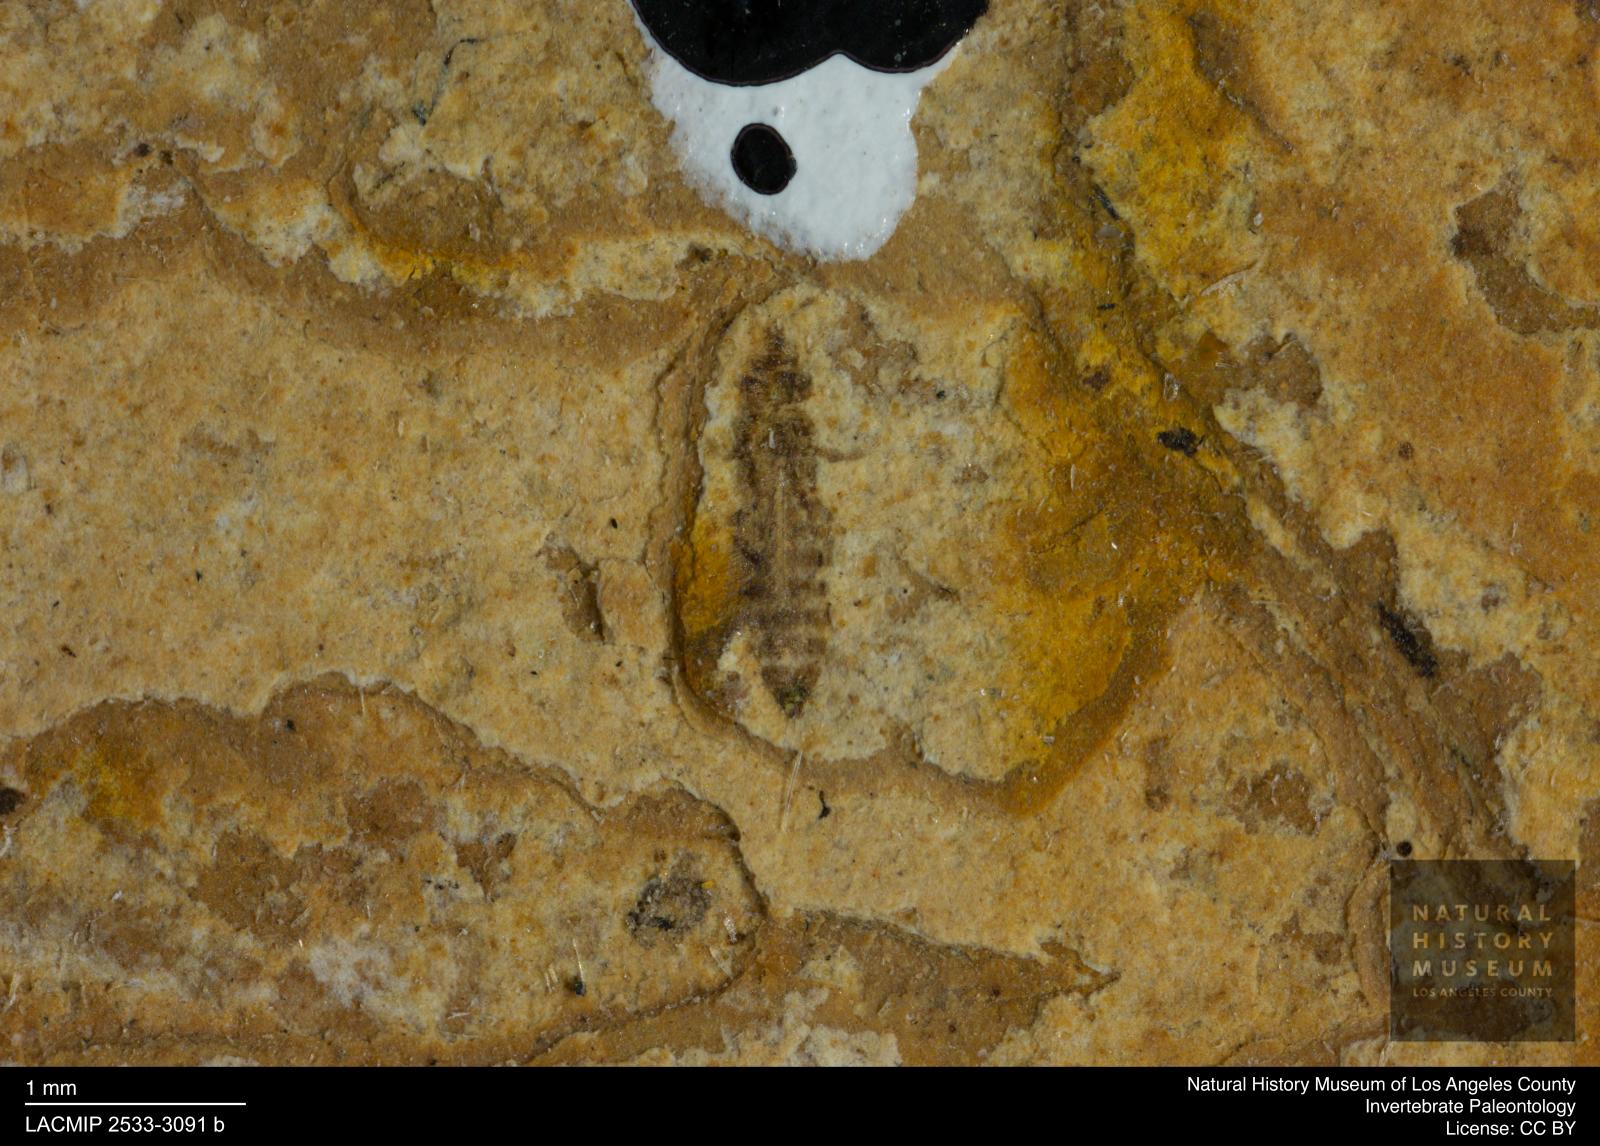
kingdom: Animalia
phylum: Arthropoda
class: Insecta
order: Thysanoptera
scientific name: Thysanoptera
